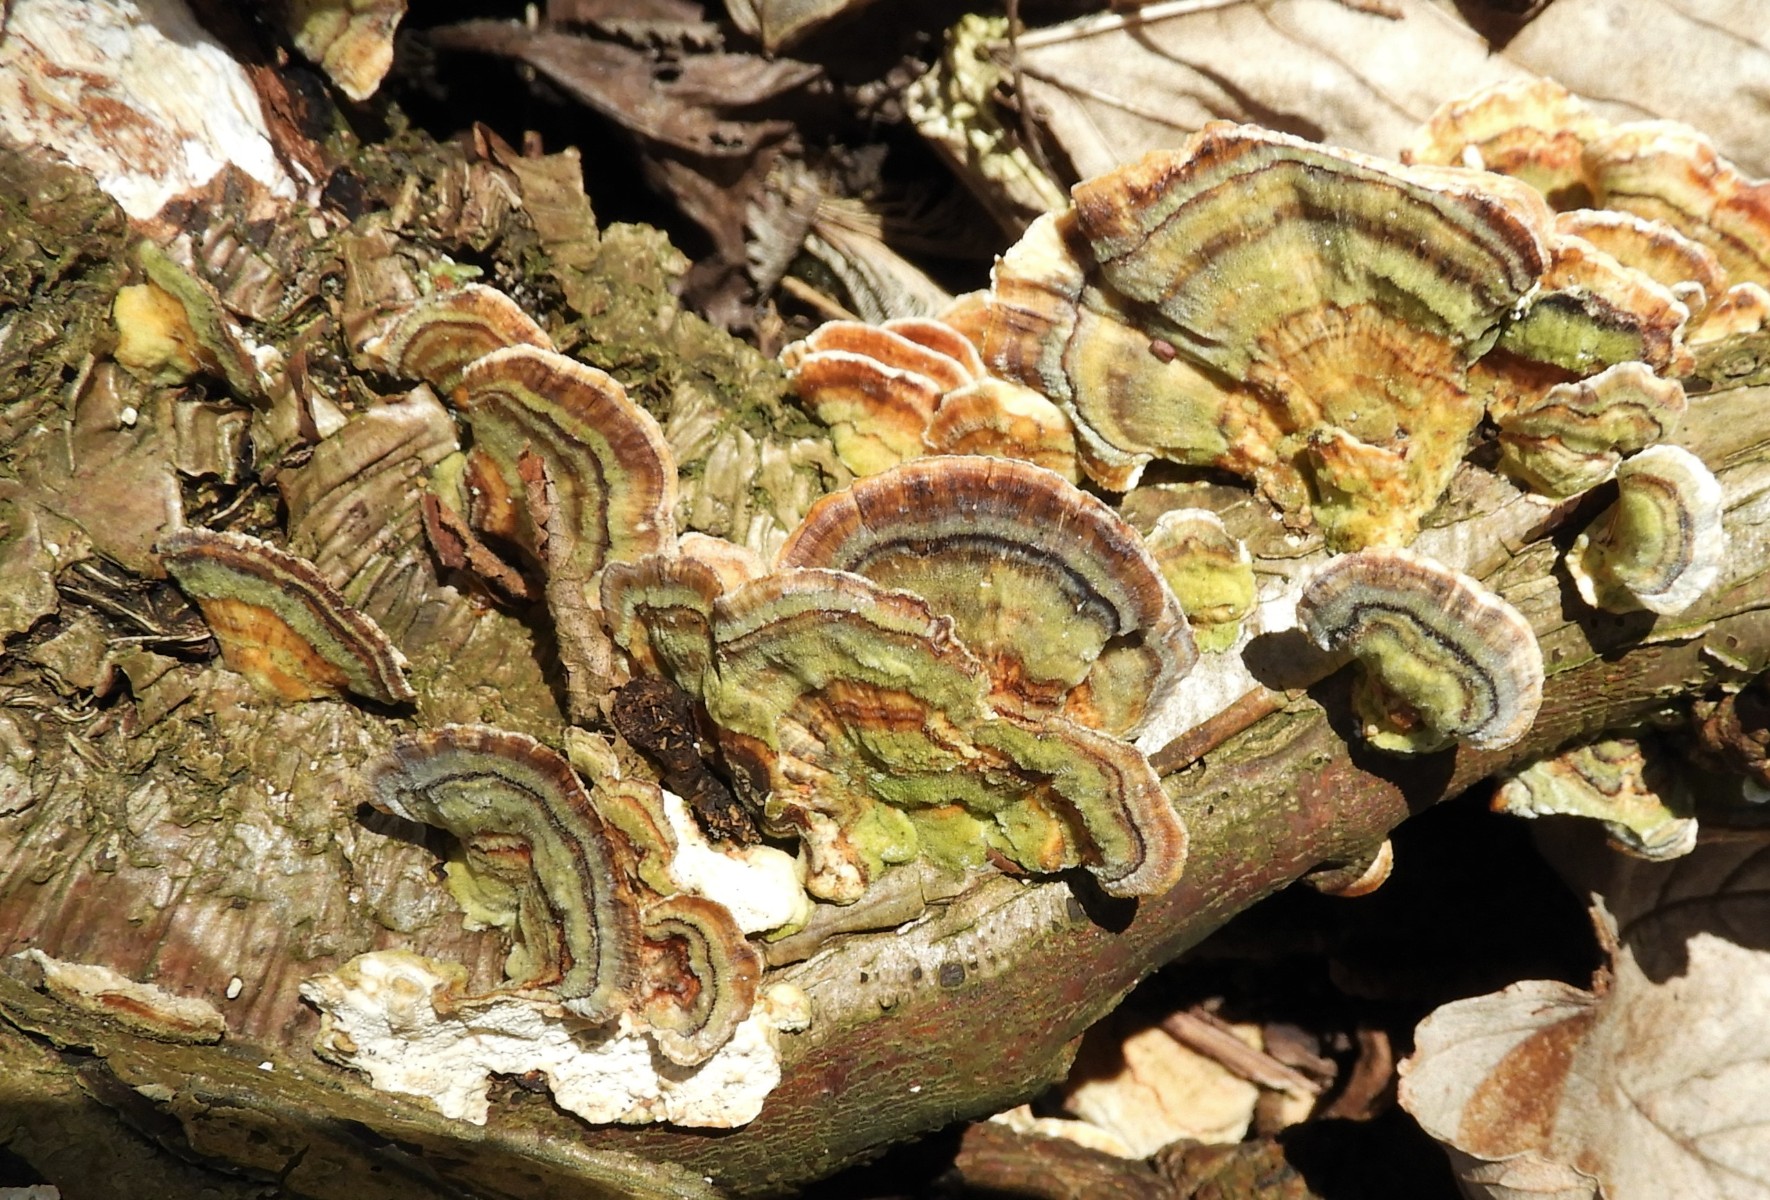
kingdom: Fungi
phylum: Basidiomycota
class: Agaricomycetes
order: Polyporales
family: Polyporaceae
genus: Trametes
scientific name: Trametes versicolor
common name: broget læderporesvamp
